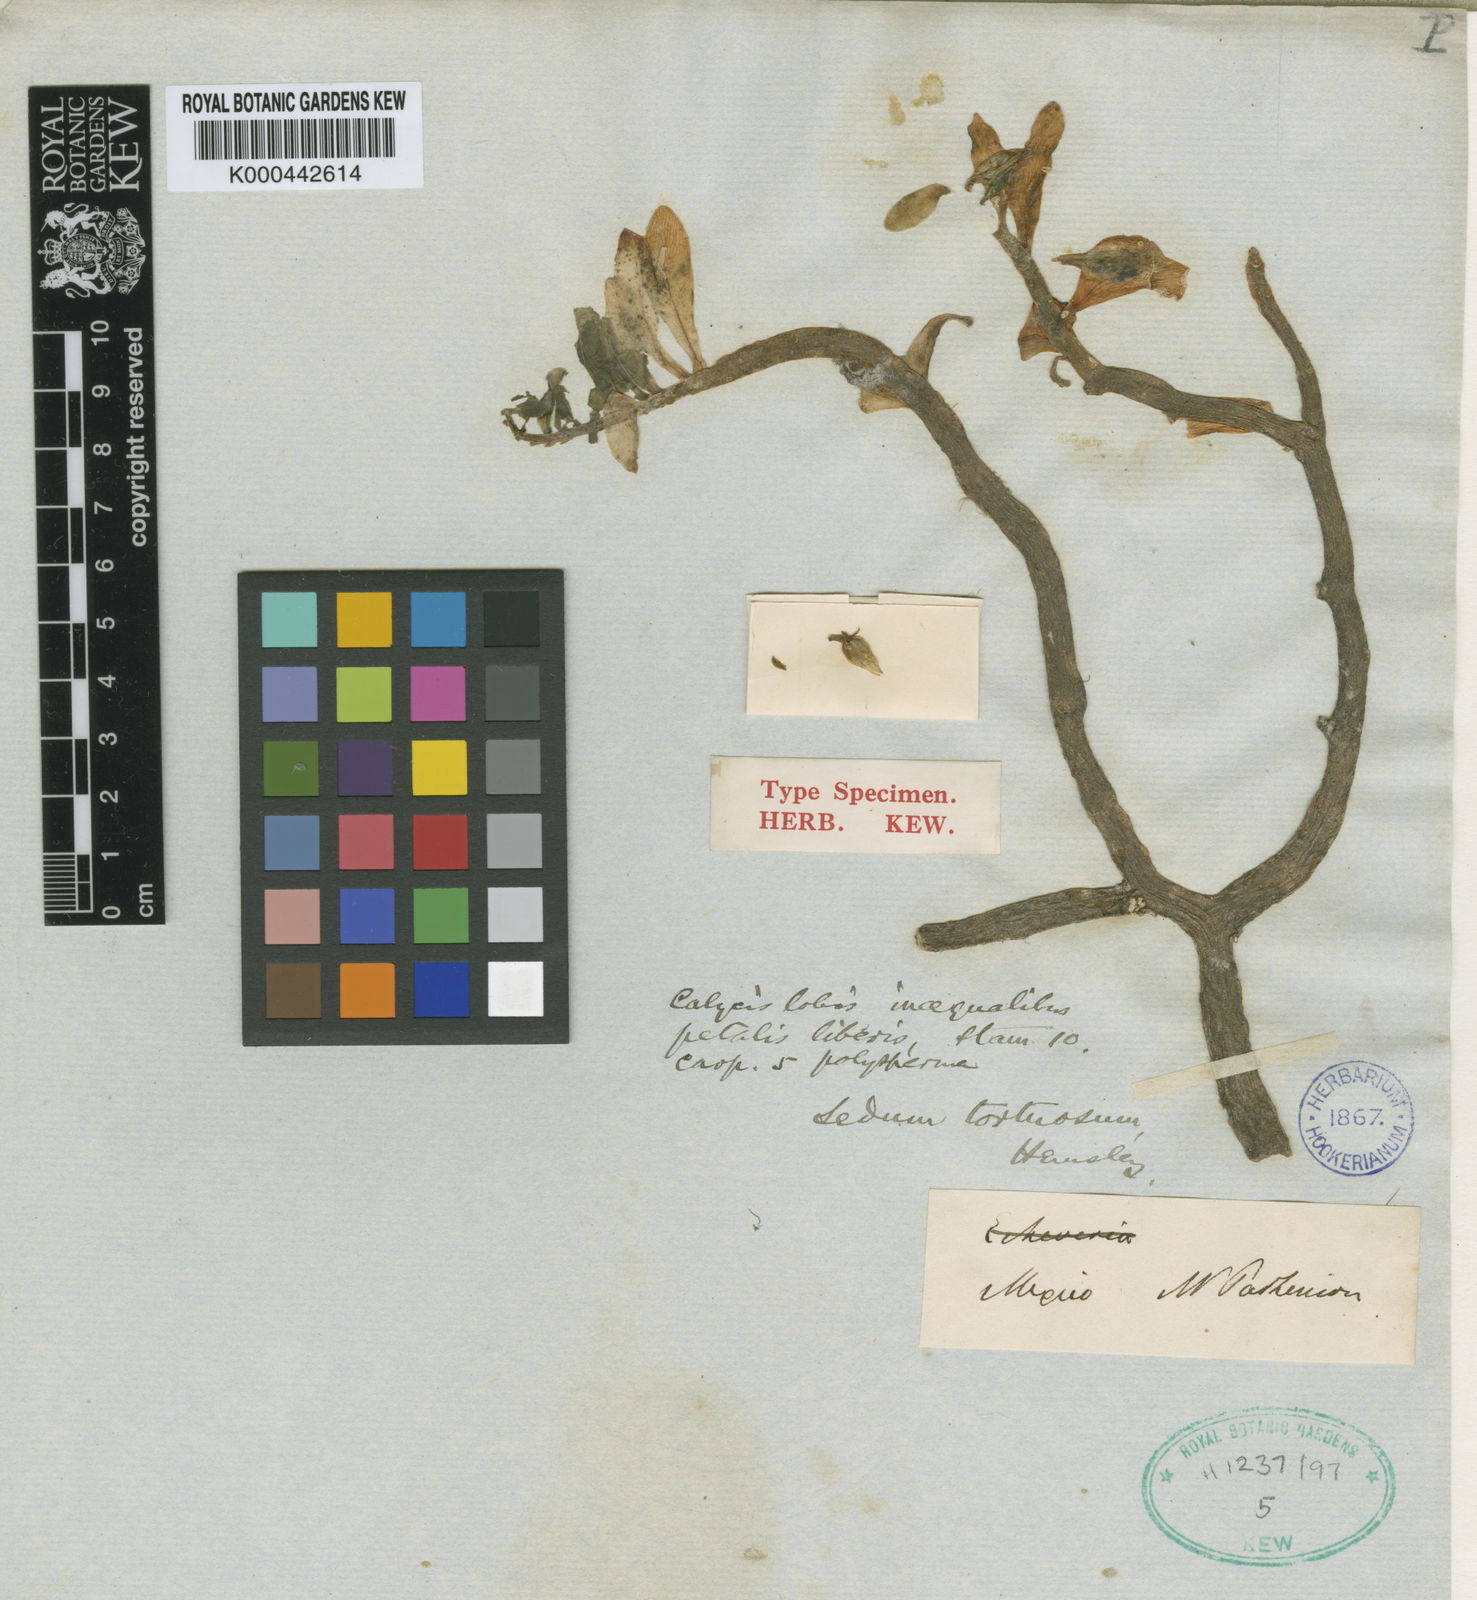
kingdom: Plantae
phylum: Tracheophyta
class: Magnoliopsida
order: Saxifragales
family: Crassulaceae
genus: Sedum
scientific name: Sedum tortuosum
